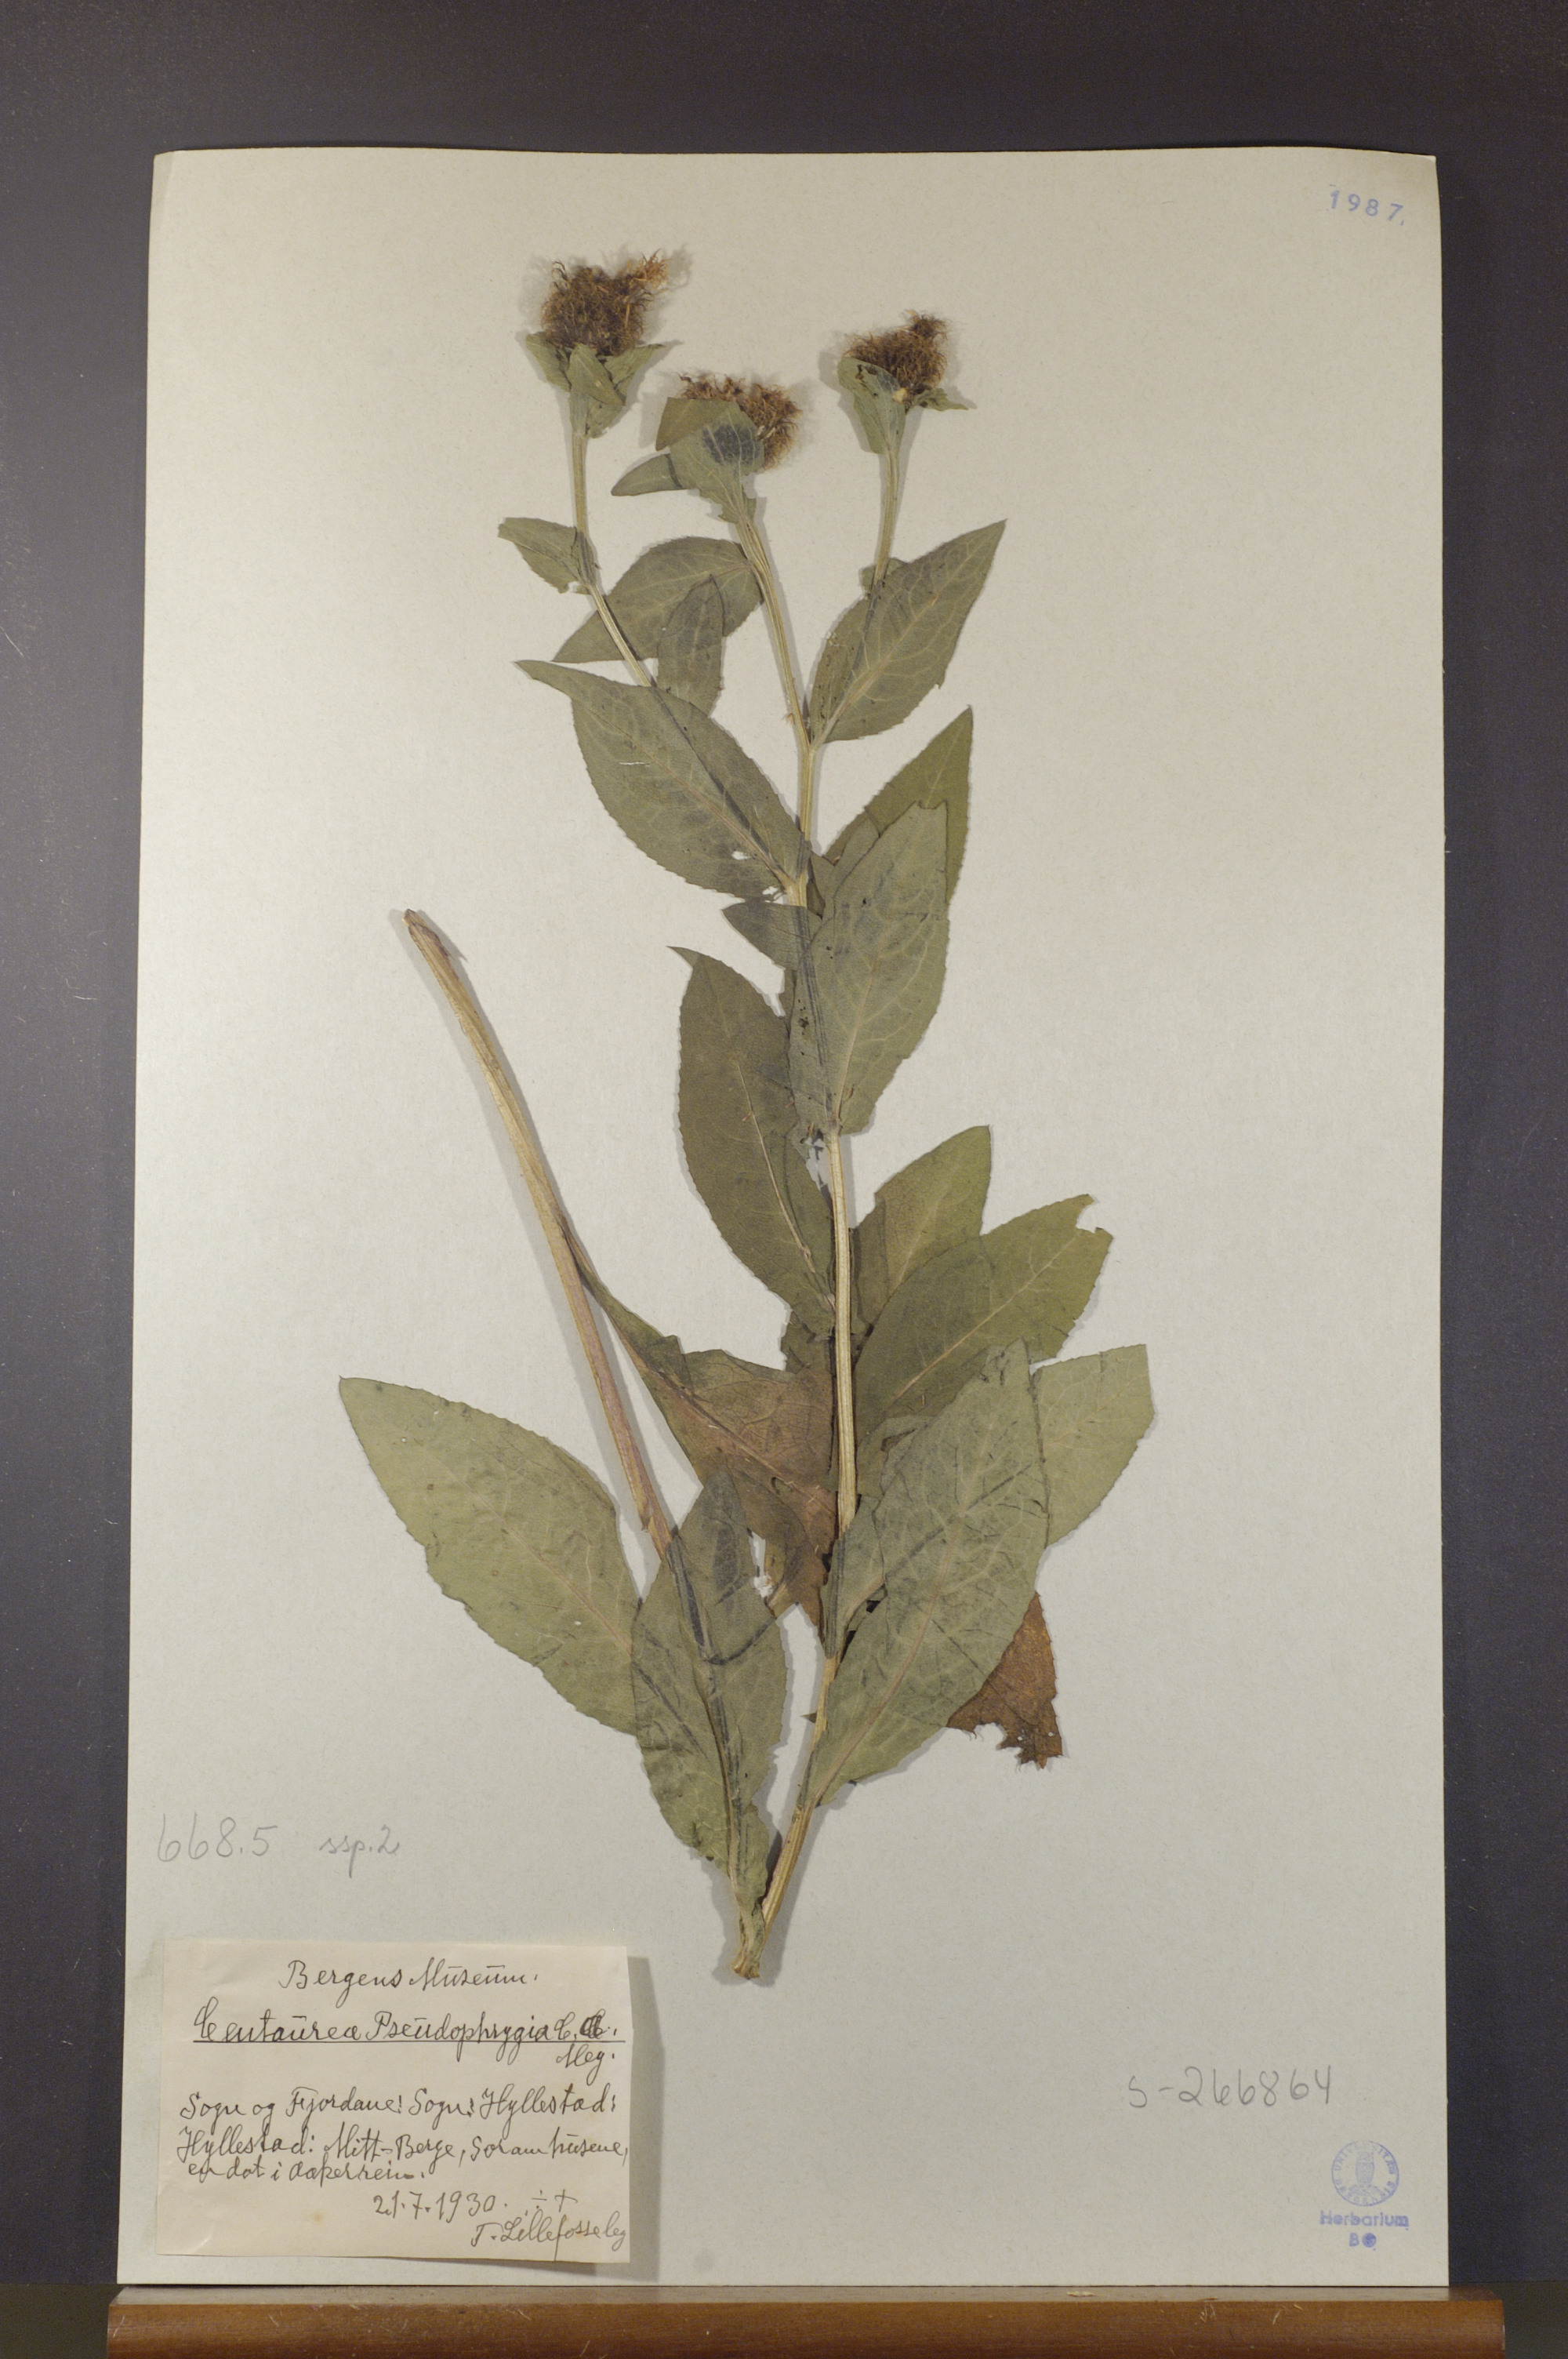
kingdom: Plantae
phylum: Tracheophyta
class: Magnoliopsida
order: Asterales
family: Asteraceae
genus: Centaurea
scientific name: Centaurea pseudophrygia
